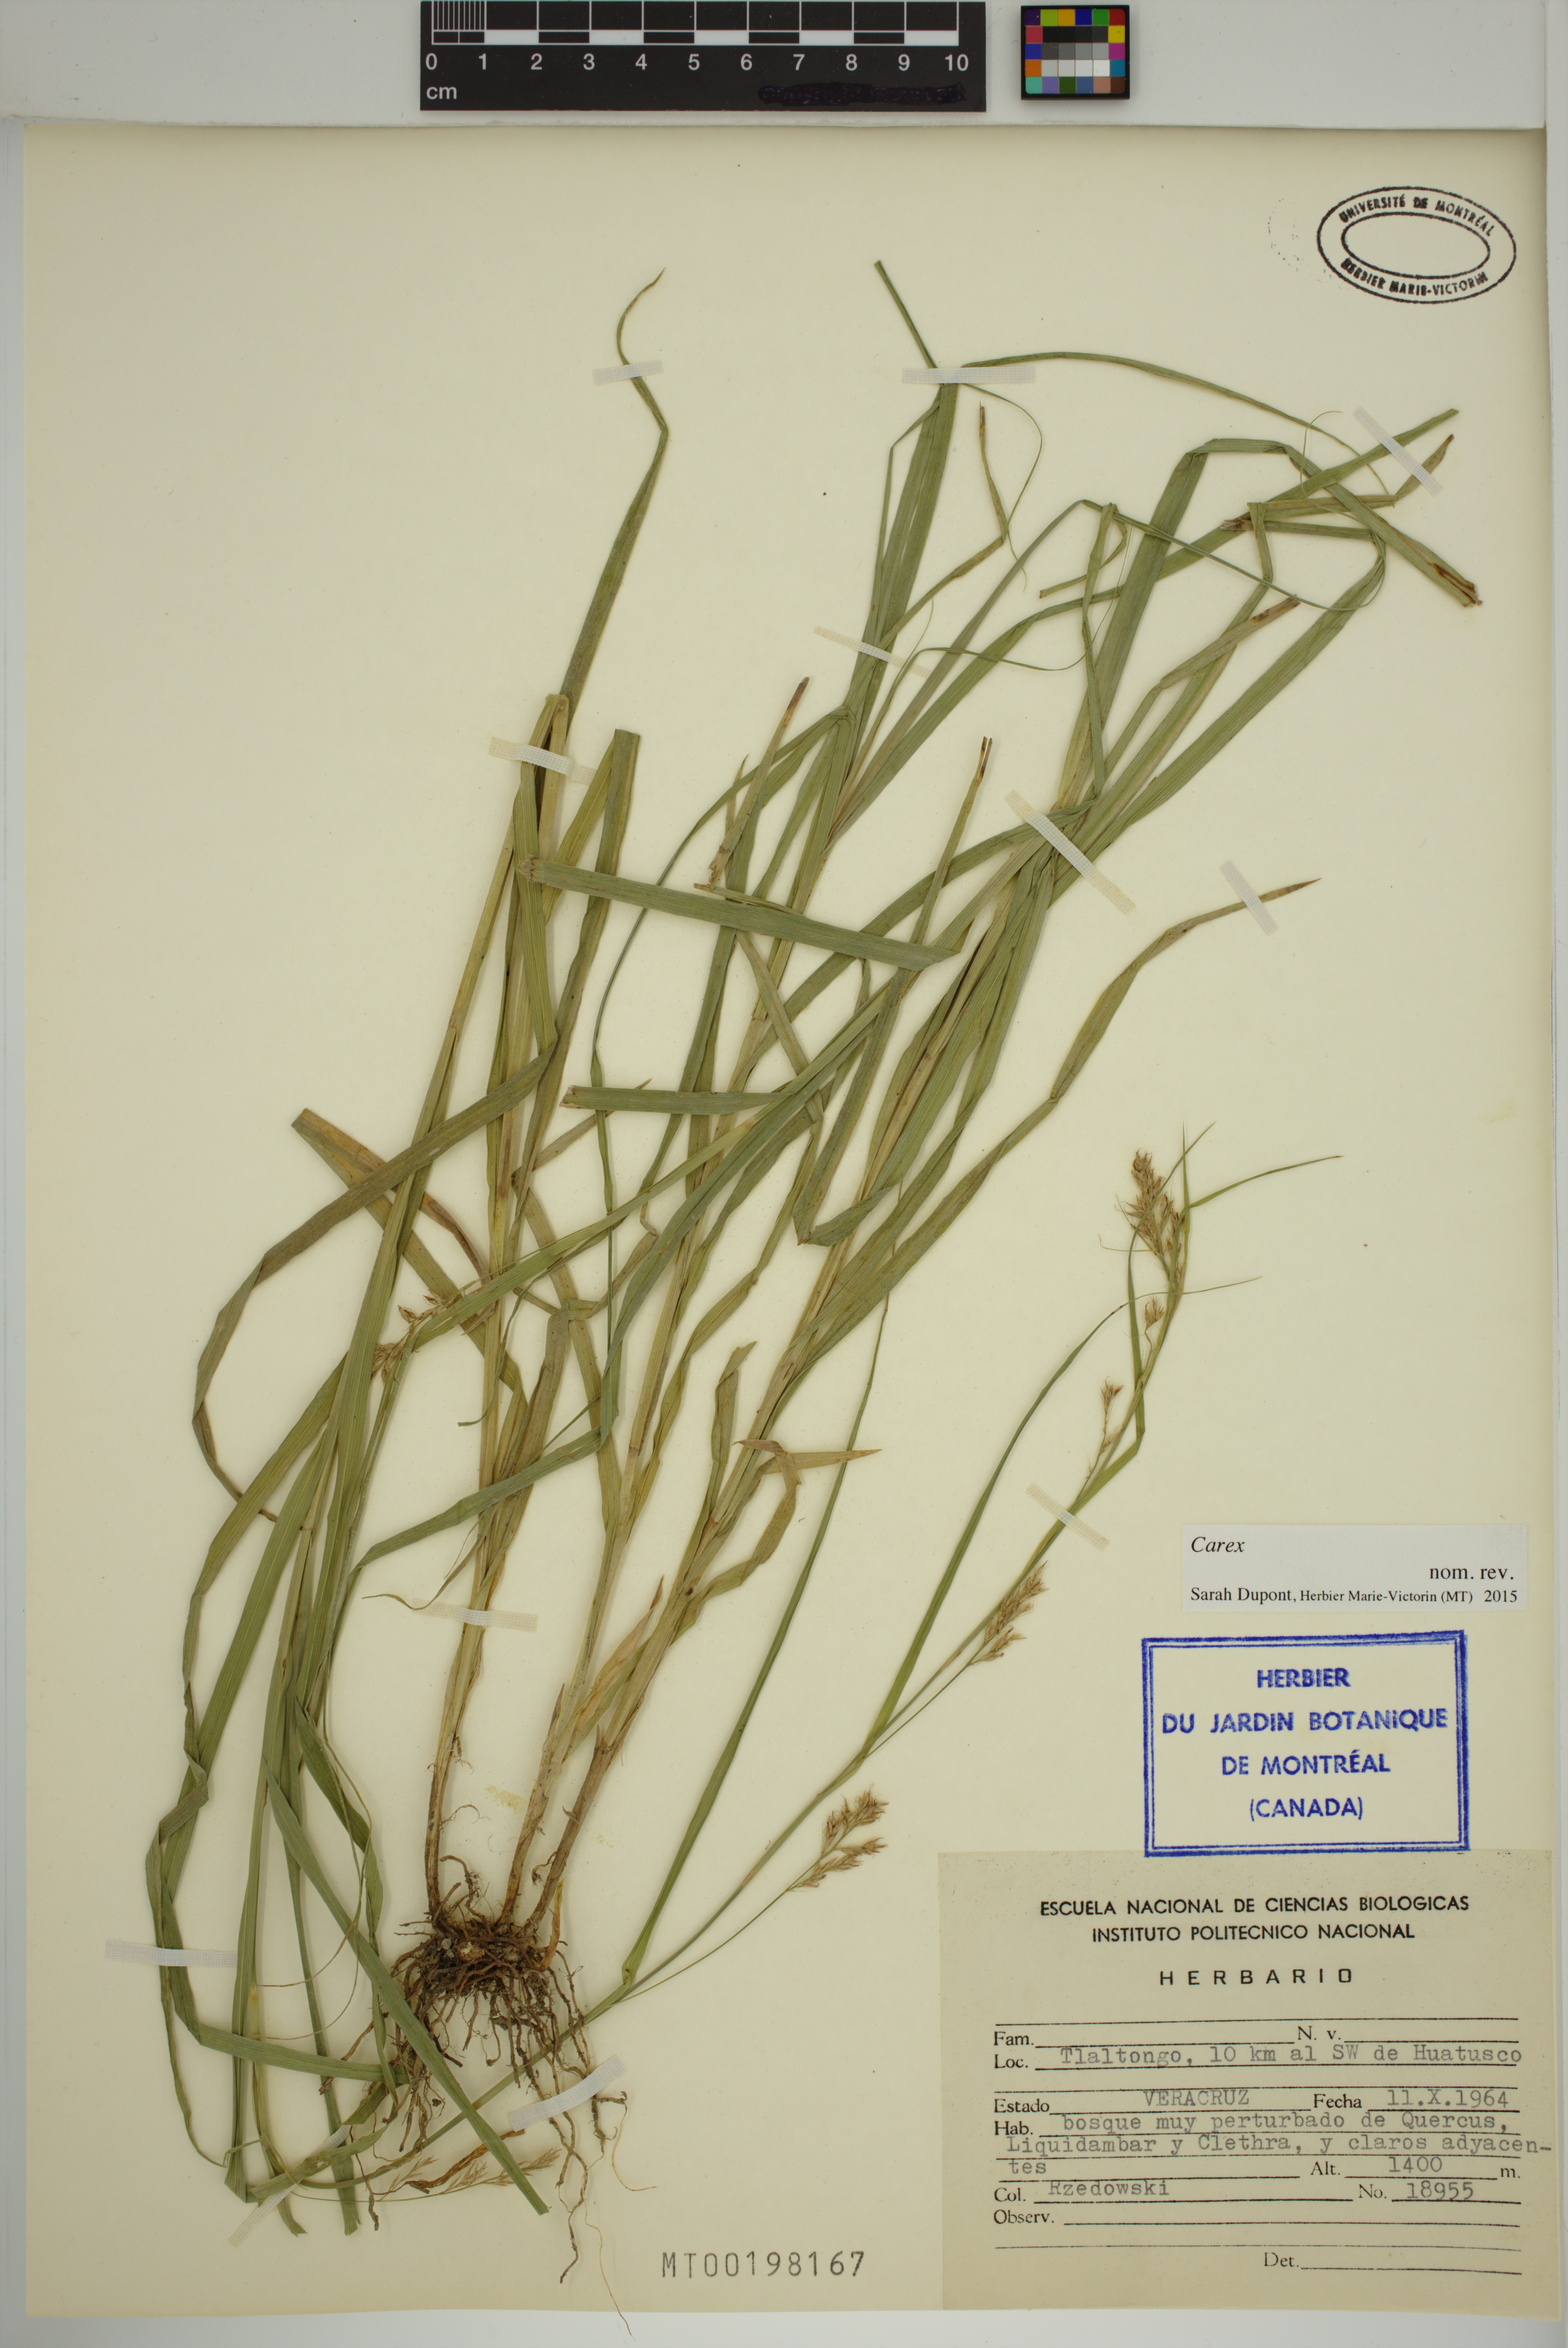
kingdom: Plantae
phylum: Tracheophyta
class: Liliopsida
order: Poales
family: Cyperaceae
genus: Carex
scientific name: Carex
